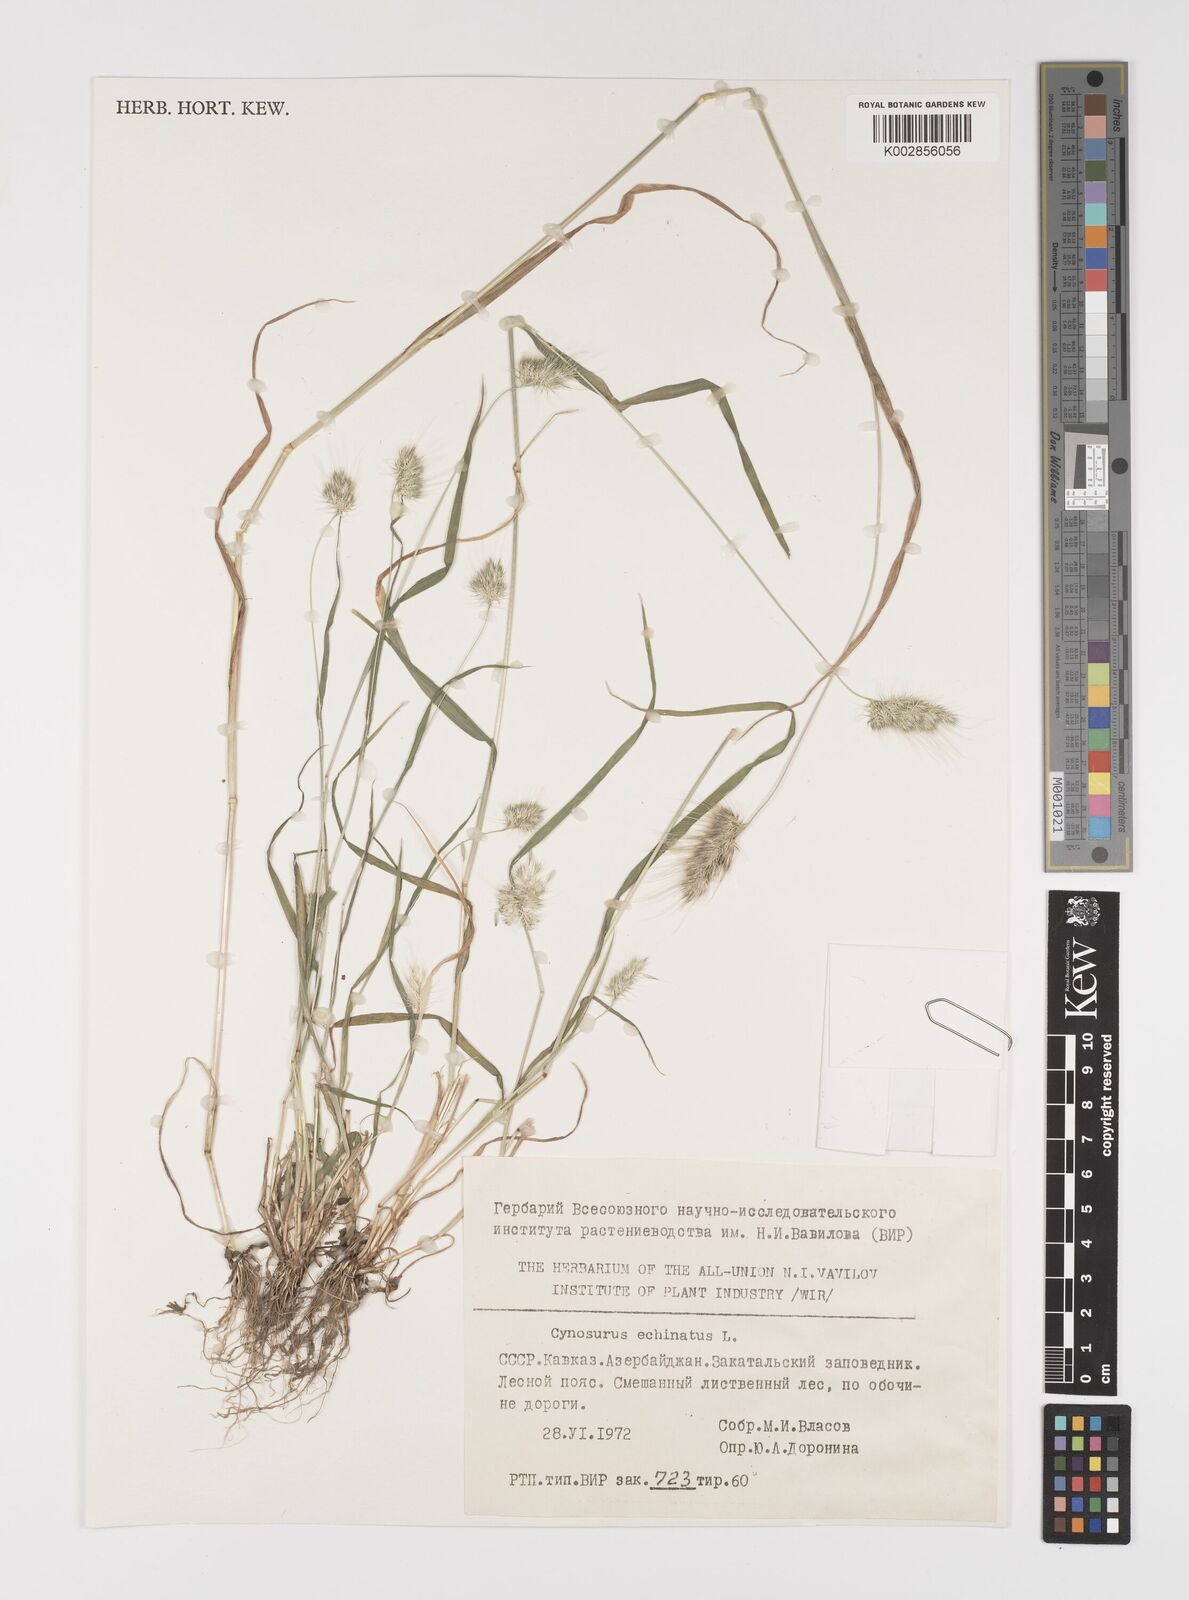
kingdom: Plantae
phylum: Tracheophyta
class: Liliopsida
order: Poales
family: Poaceae
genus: Cynosurus
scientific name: Cynosurus echinatus
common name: Rough dog's-tail
